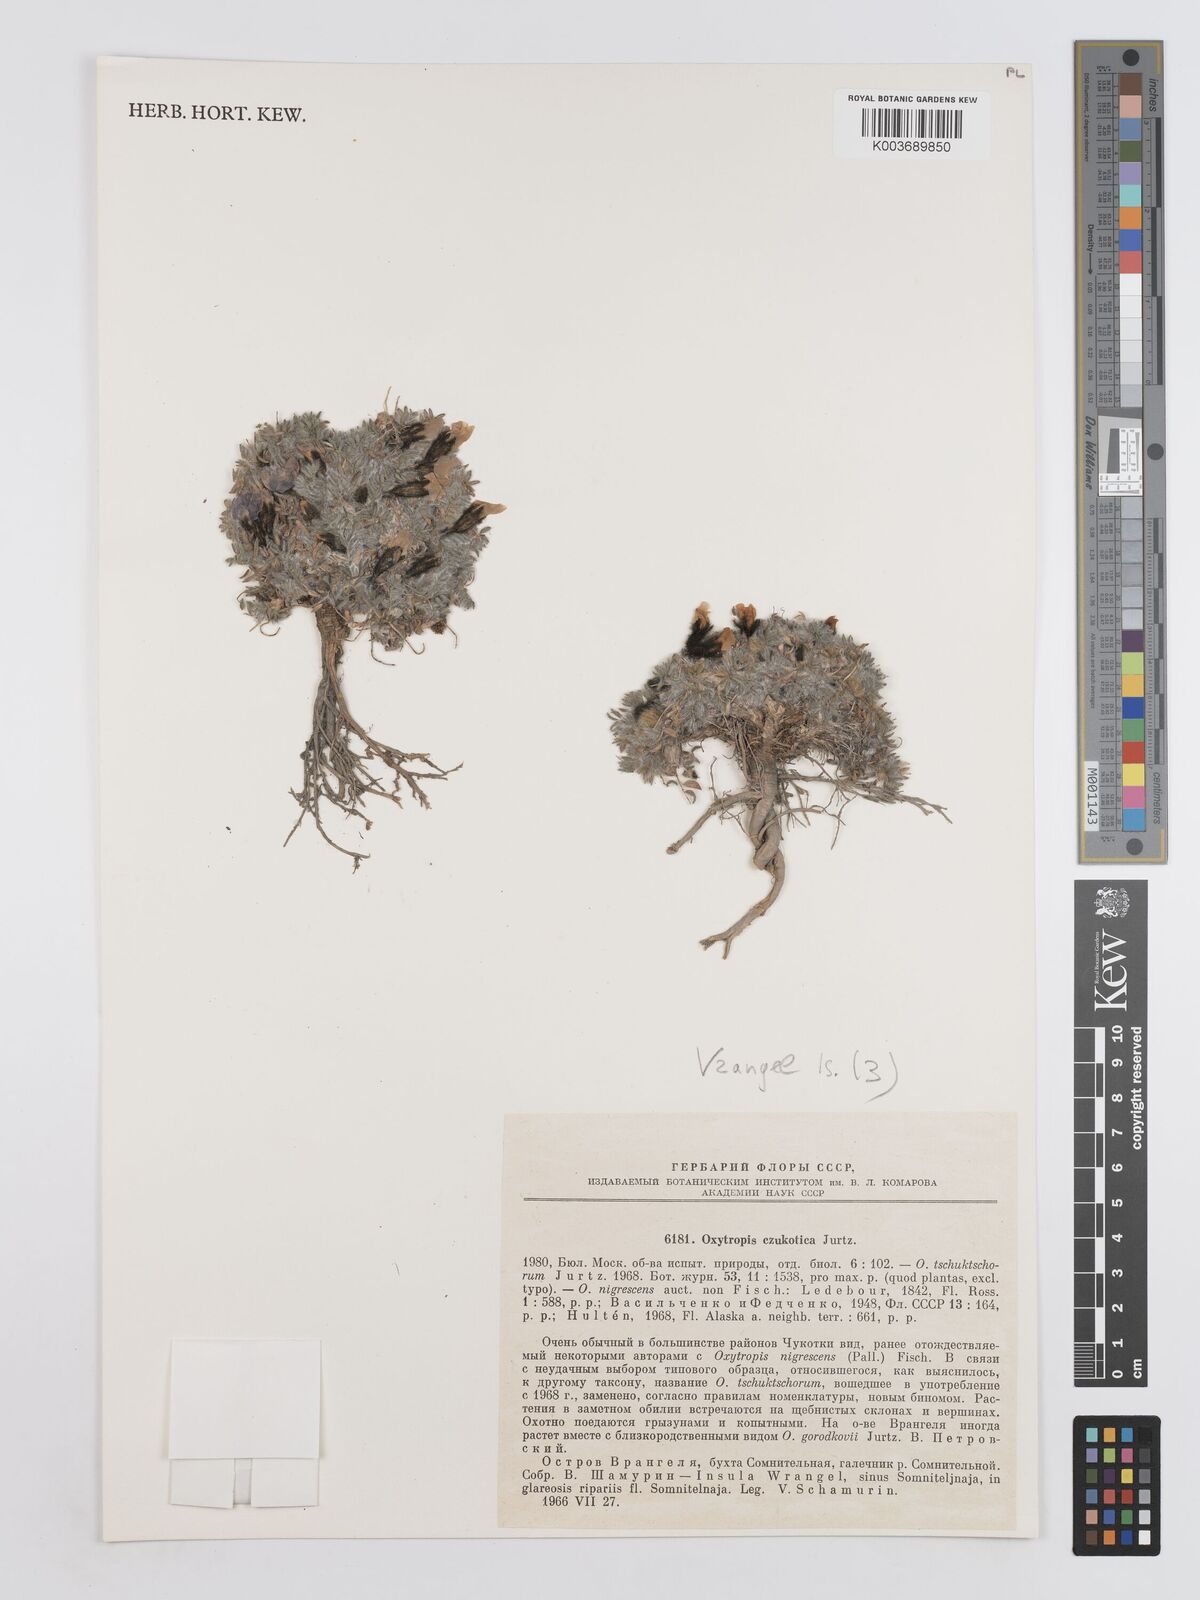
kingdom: Plantae
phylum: Tracheophyta
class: Magnoliopsida
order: Fabales
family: Fabaceae
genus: Oxytropis
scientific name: Oxytropis czukotica
